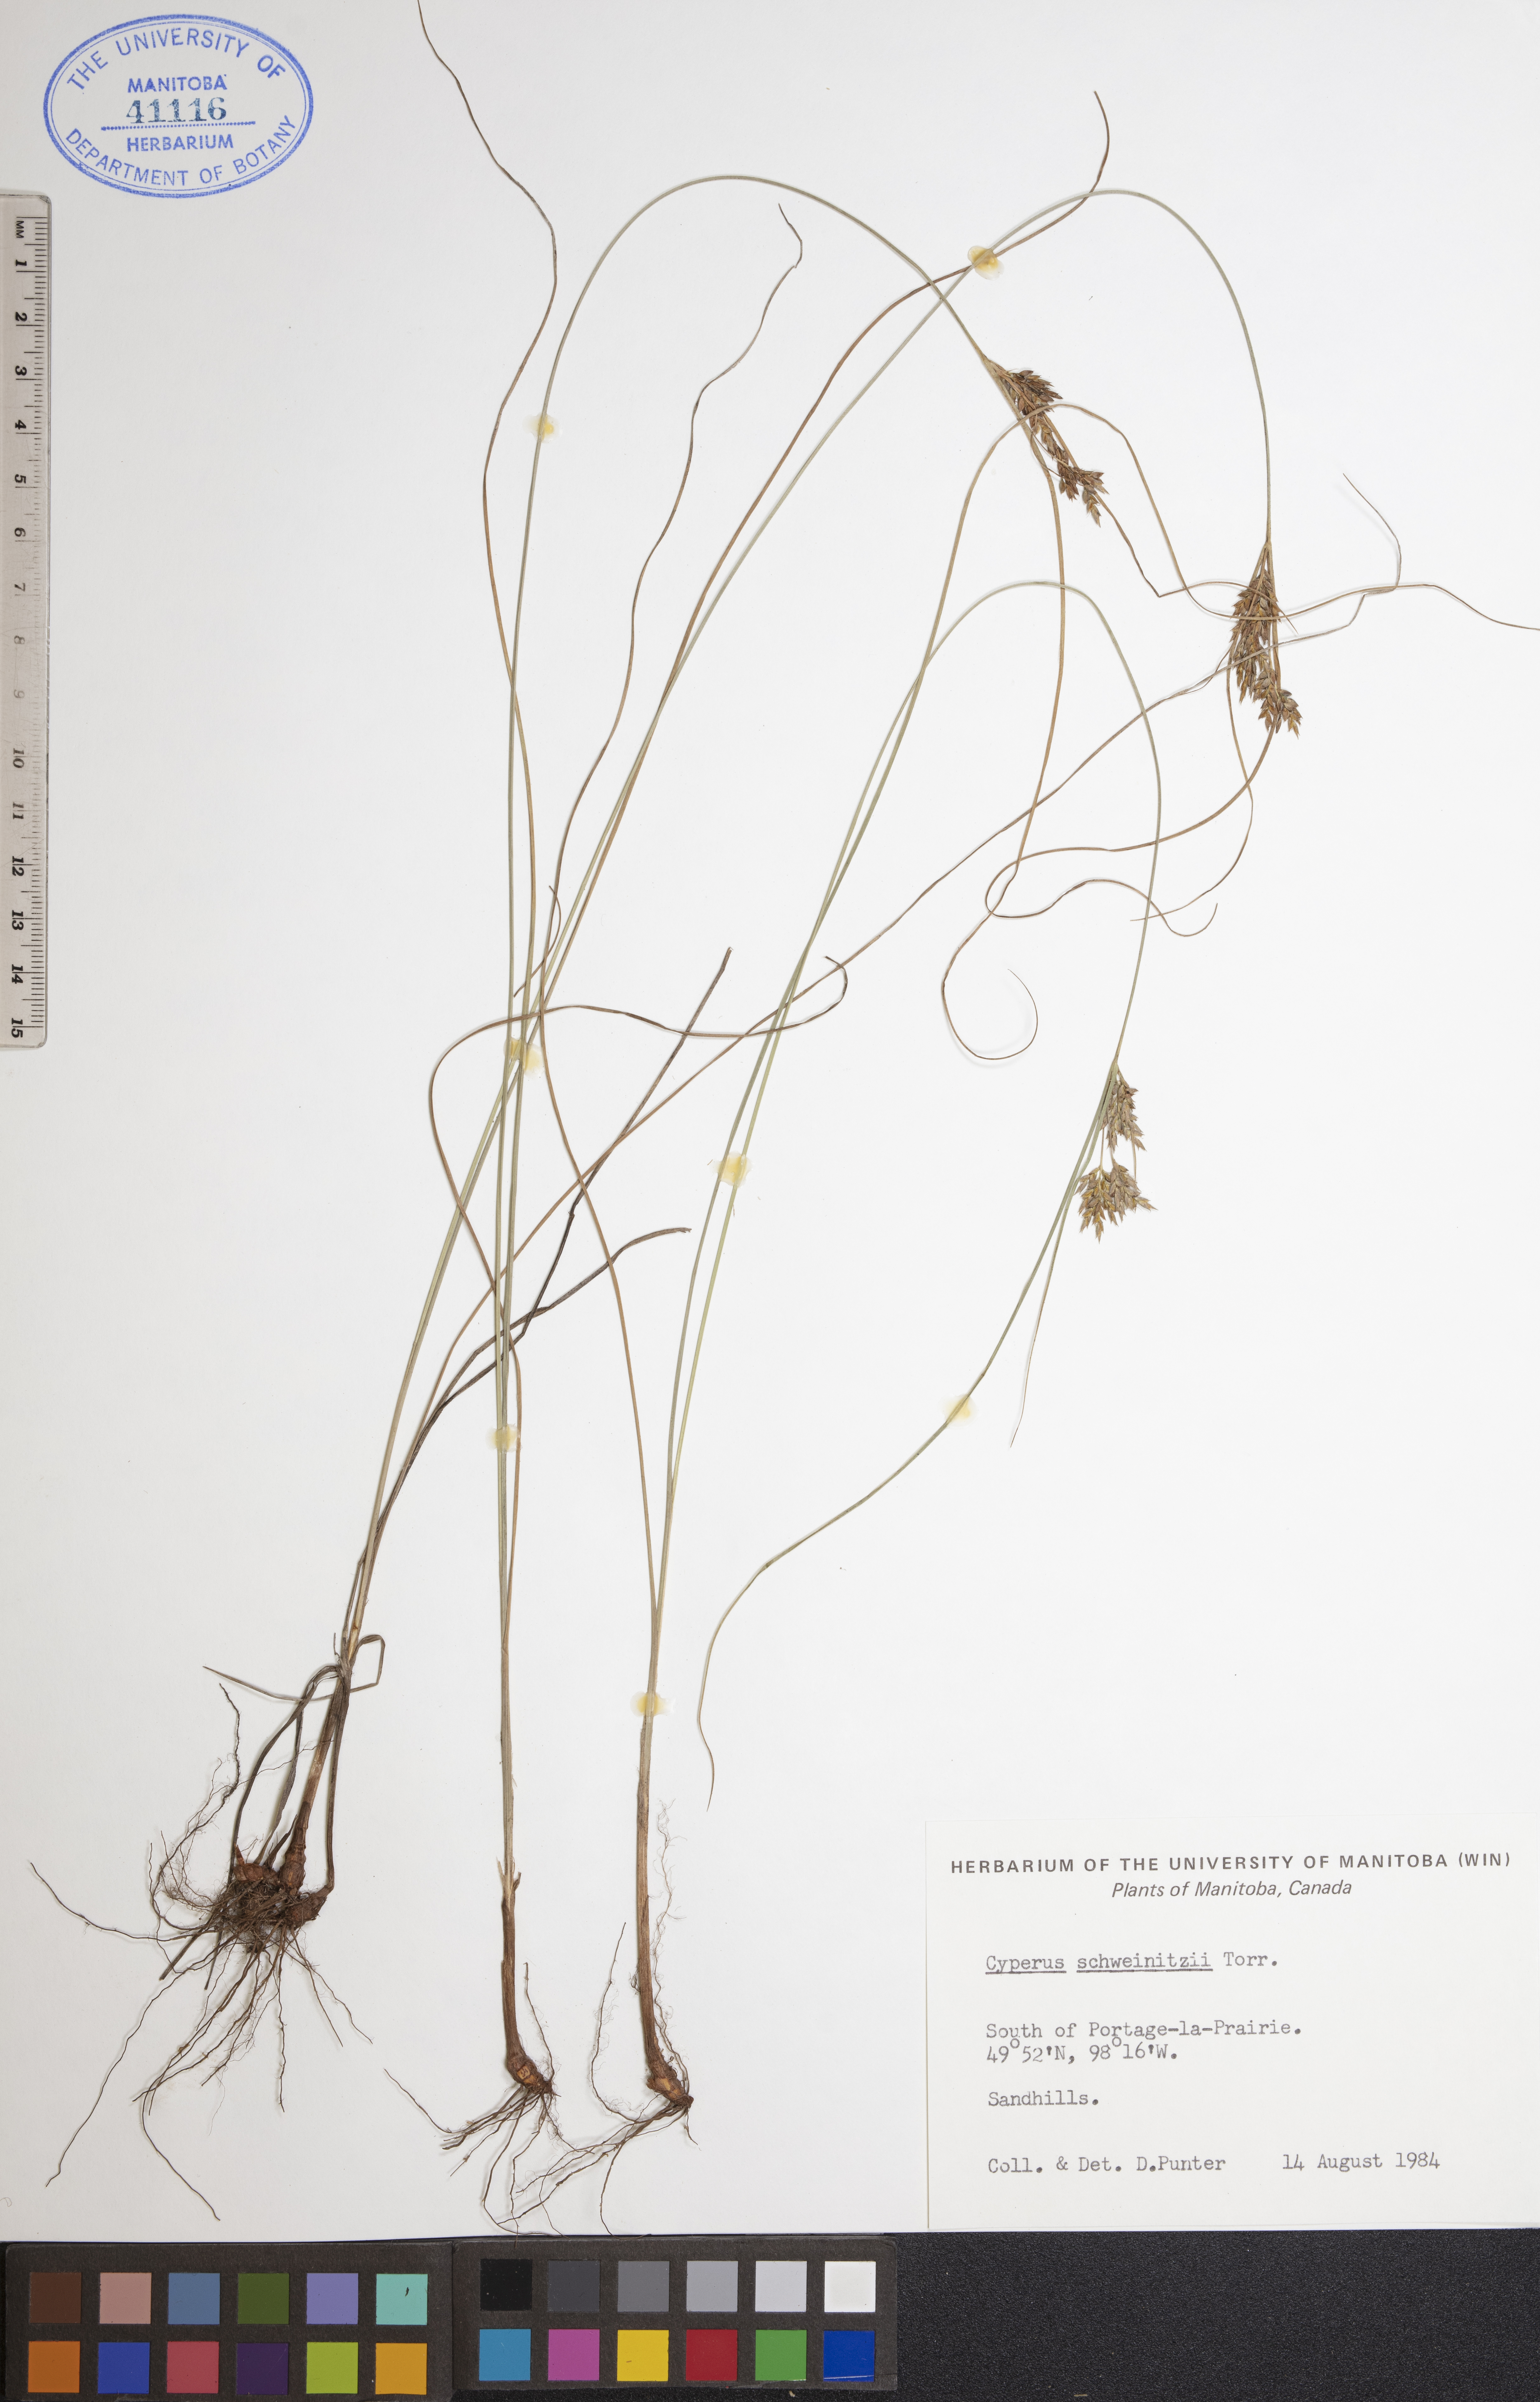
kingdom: Plantae
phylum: Tracheophyta
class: Liliopsida
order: Poales
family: Cyperaceae
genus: Cyperus
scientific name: Cyperus schweinitzii
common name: Schweinitz's cyperus
